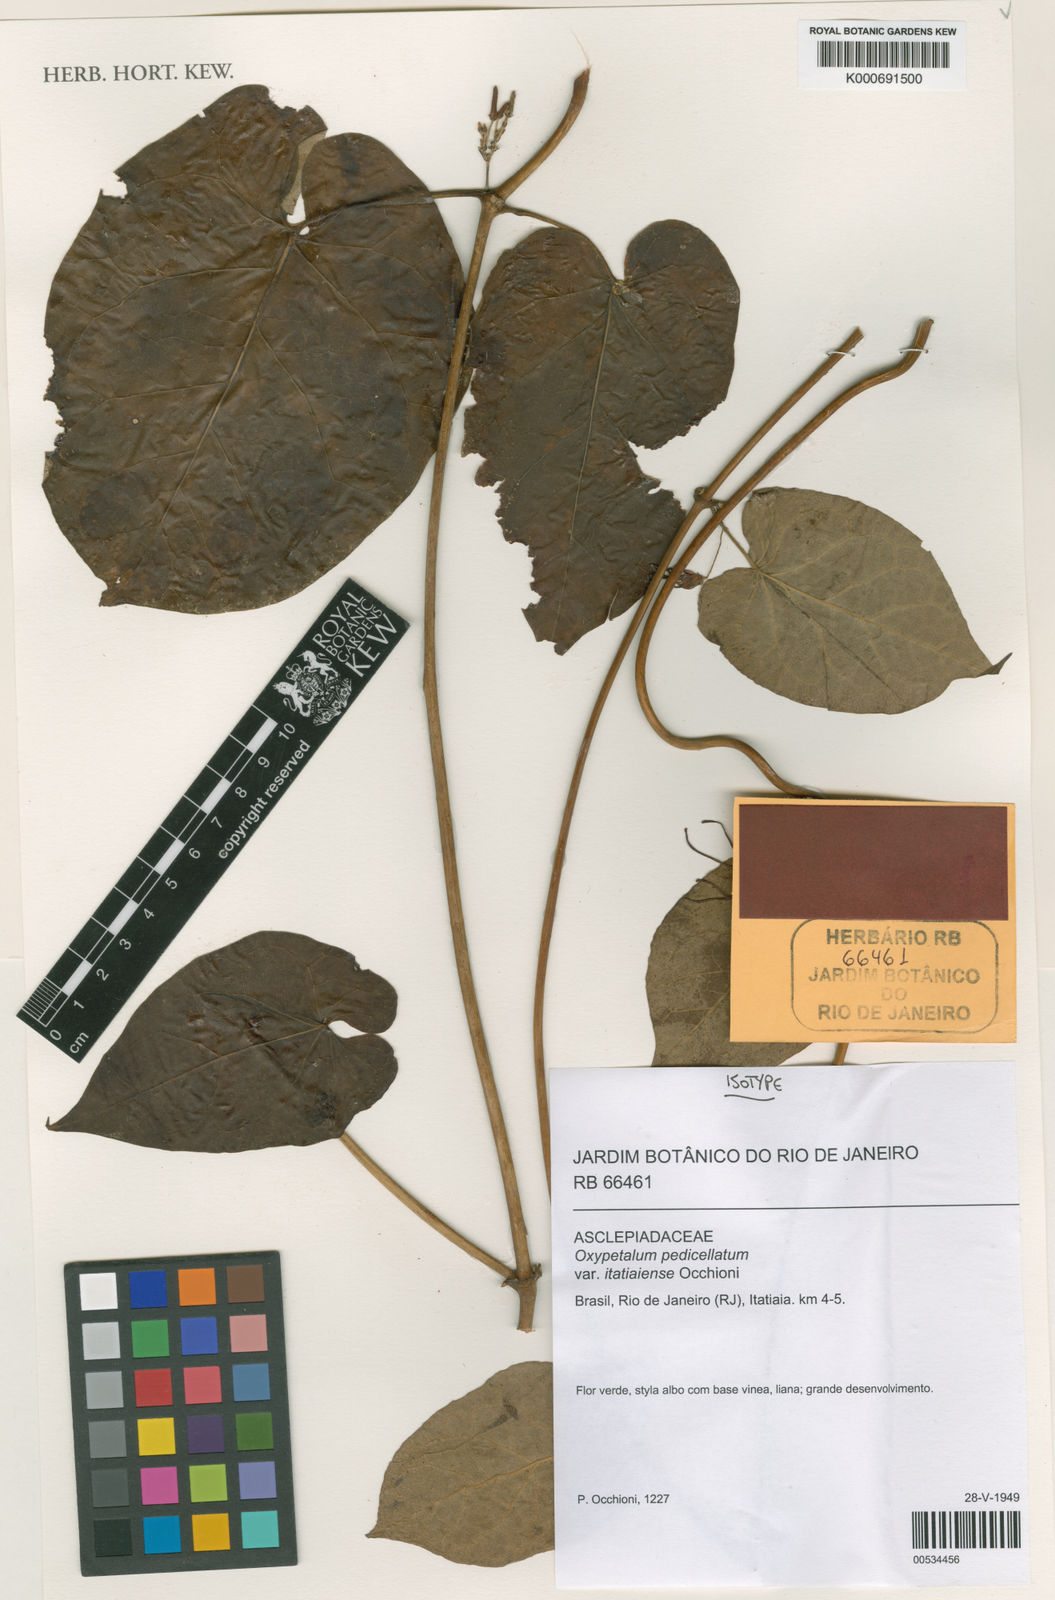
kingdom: Plantae
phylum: Tracheophyta
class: Magnoliopsida
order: Gentianales
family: Apocynaceae
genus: Oxypetalum
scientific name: Oxypetalum cordifolium
